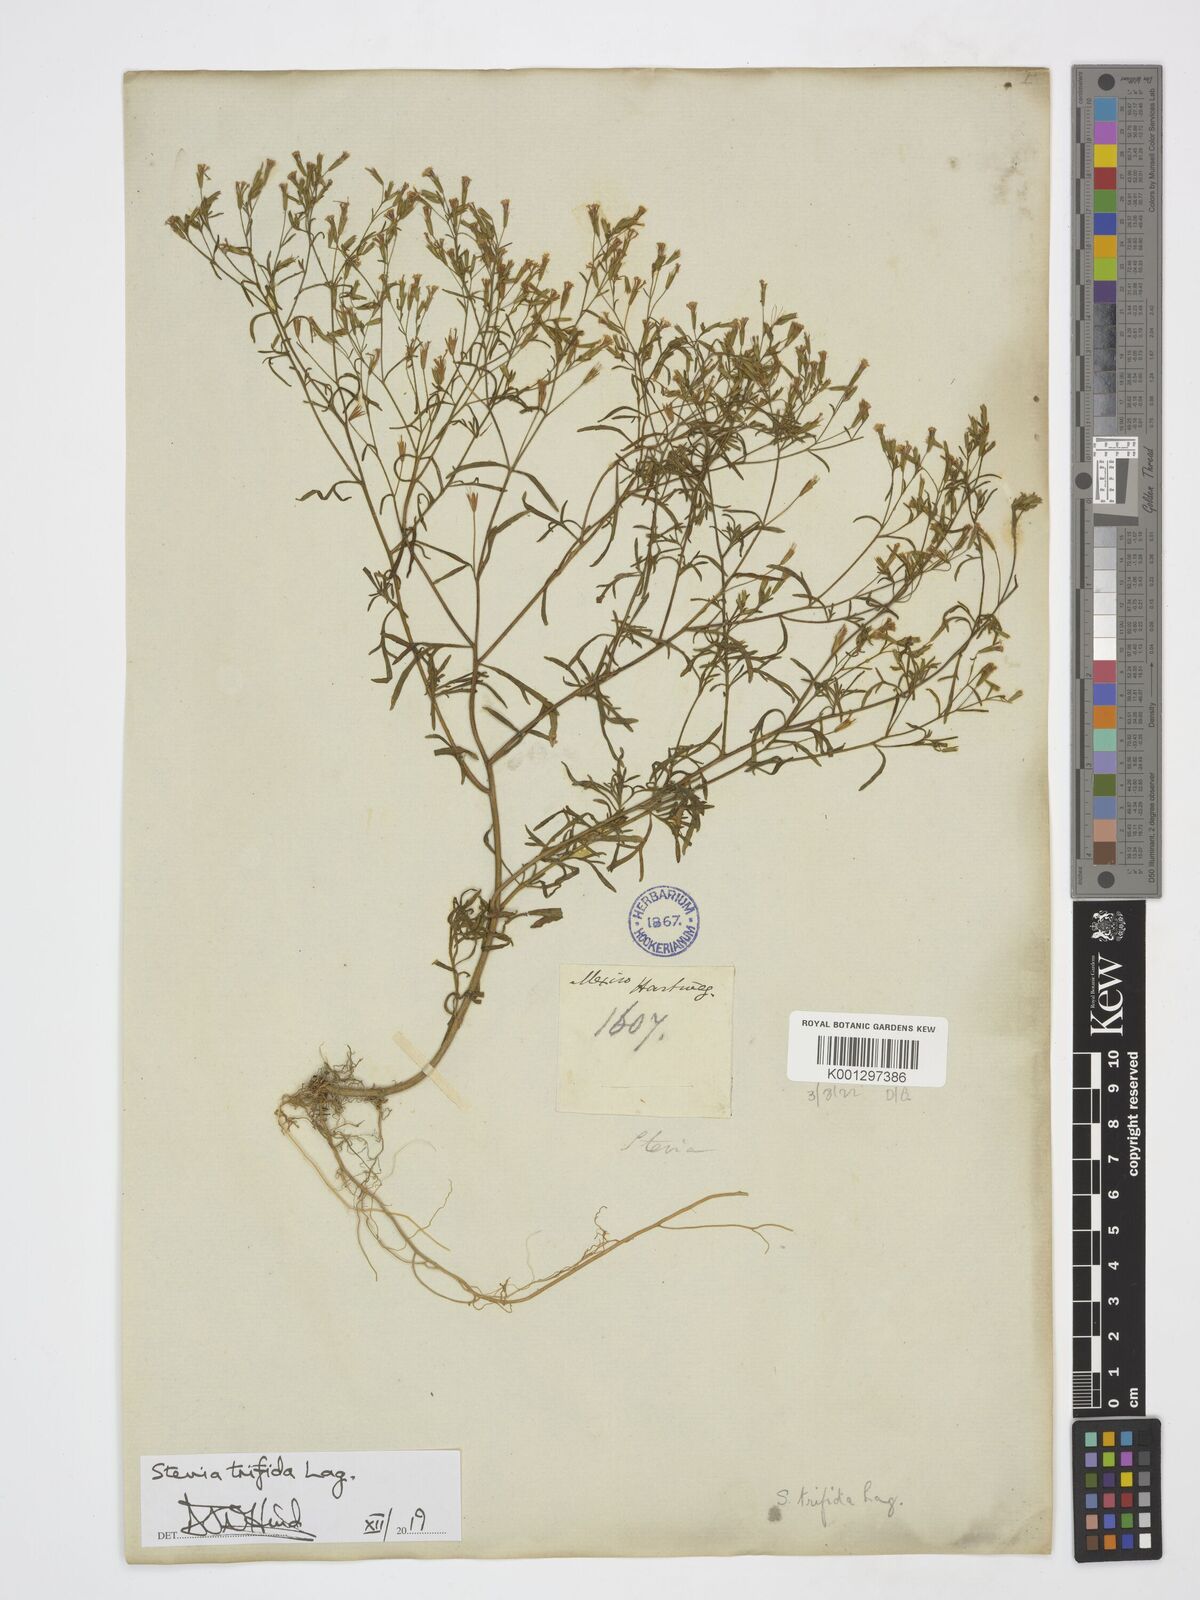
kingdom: Plantae
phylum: Tracheophyta
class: Magnoliopsida
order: Asterales
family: Asteraceae
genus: Stevia
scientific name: Stevia trifida
